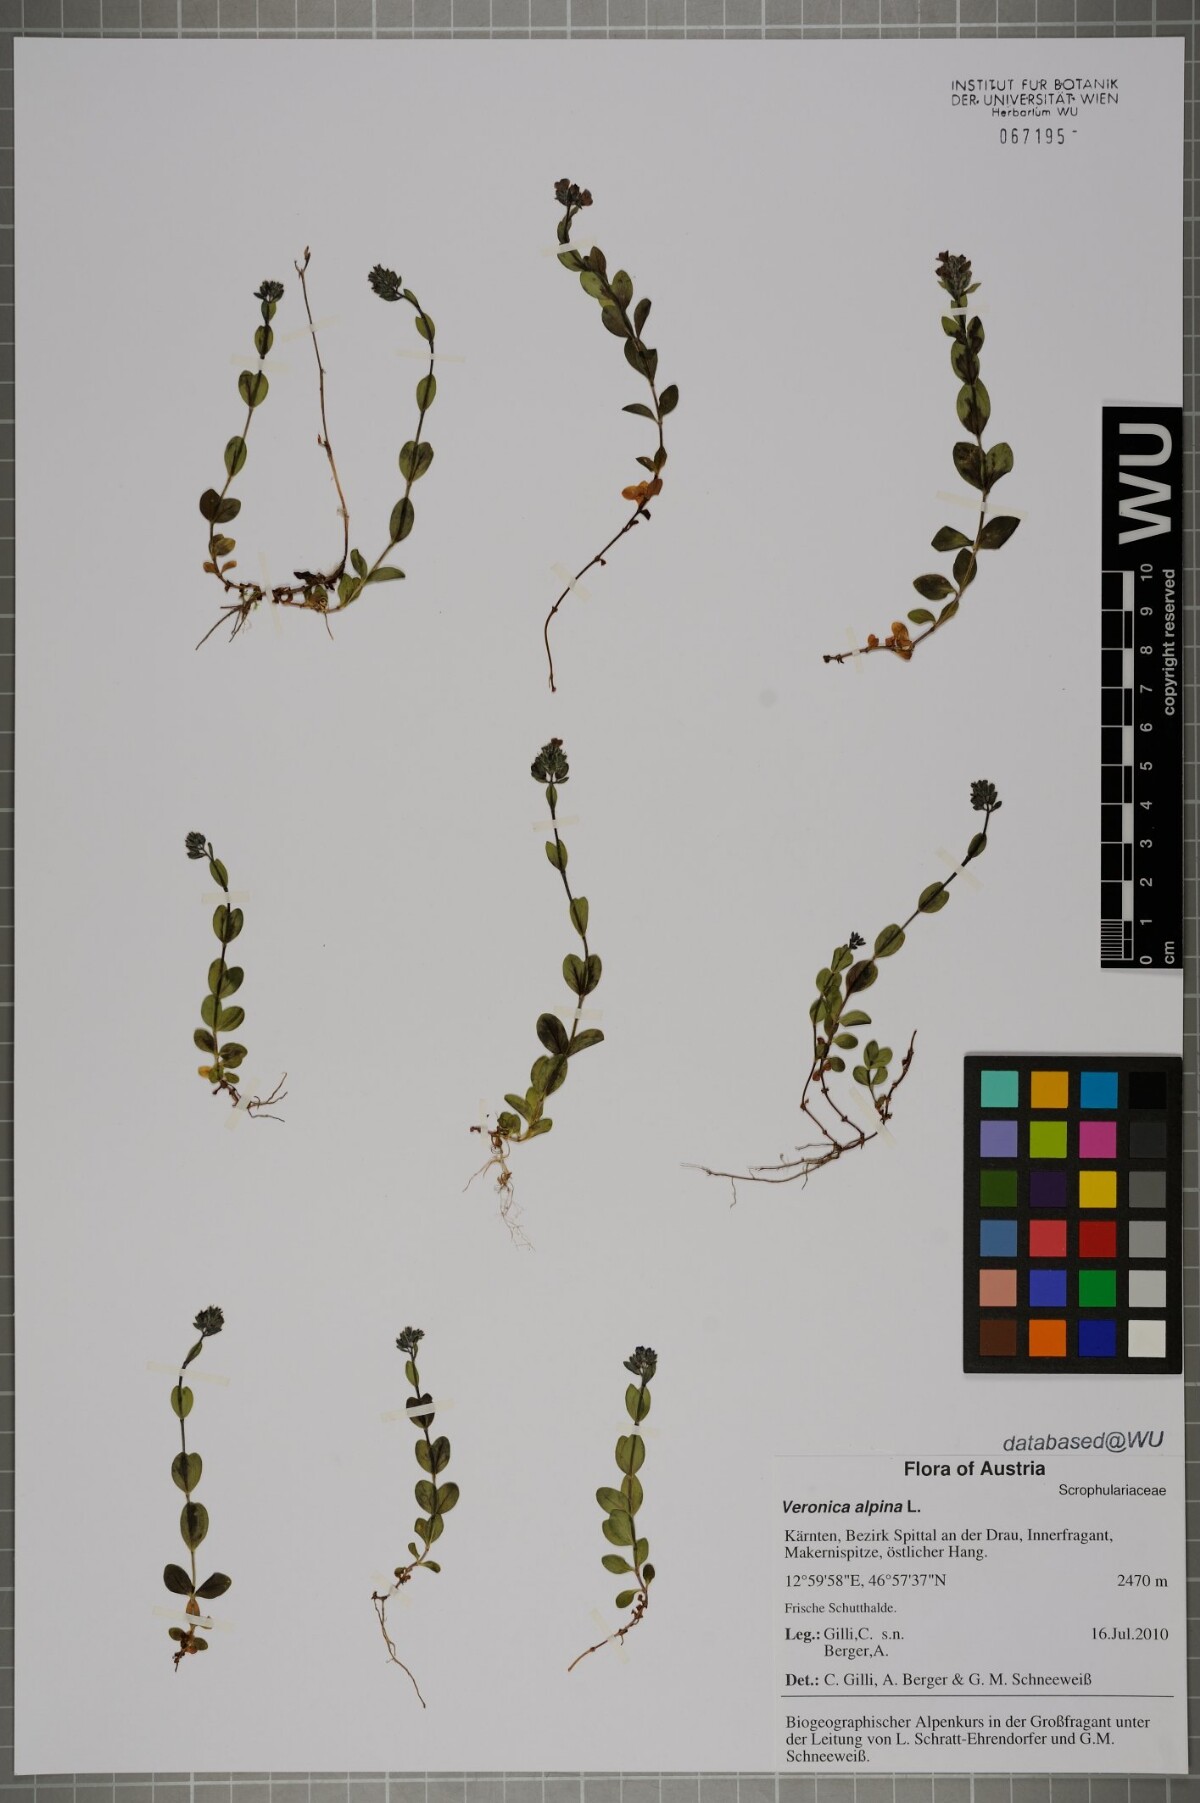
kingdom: Plantae
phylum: Tracheophyta
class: Magnoliopsida
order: Lamiales
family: Plantaginaceae
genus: Veronica
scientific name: Veronica alpina
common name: Alpine speedwell
